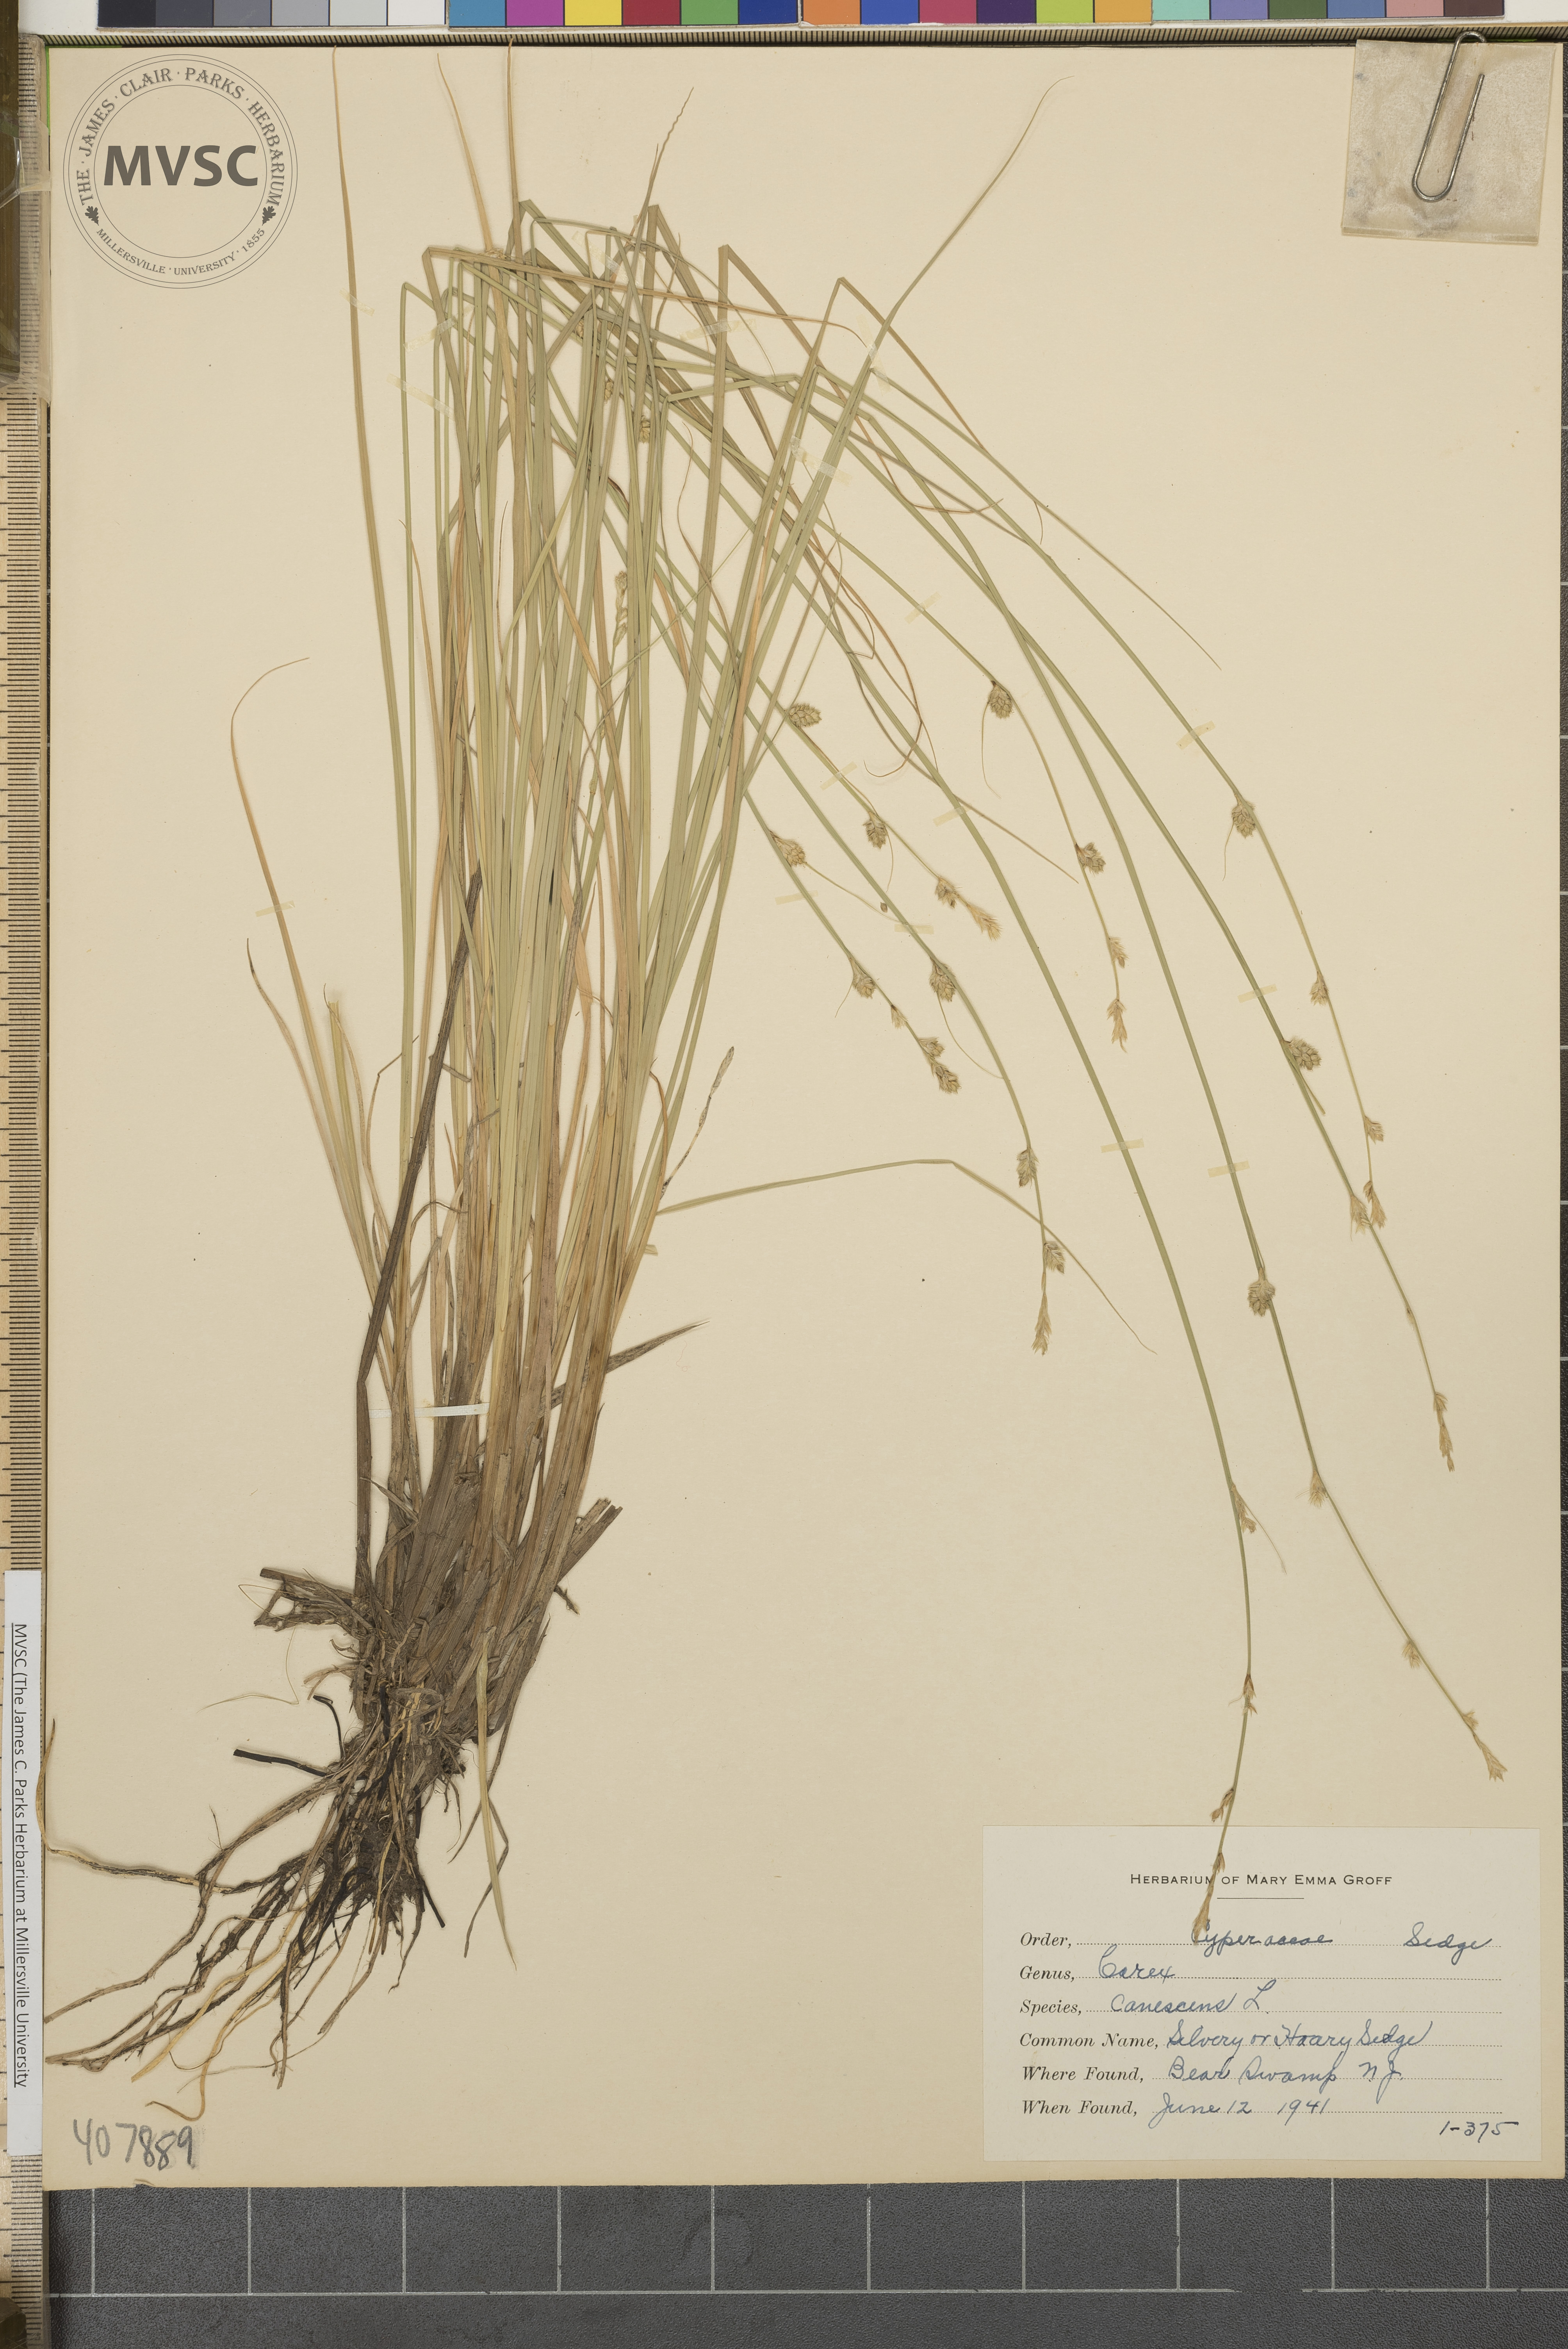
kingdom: Plantae
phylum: Tracheophyta
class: Liliopsida
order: Poales
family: Cyperaceae
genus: Carex
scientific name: Carex canescens
